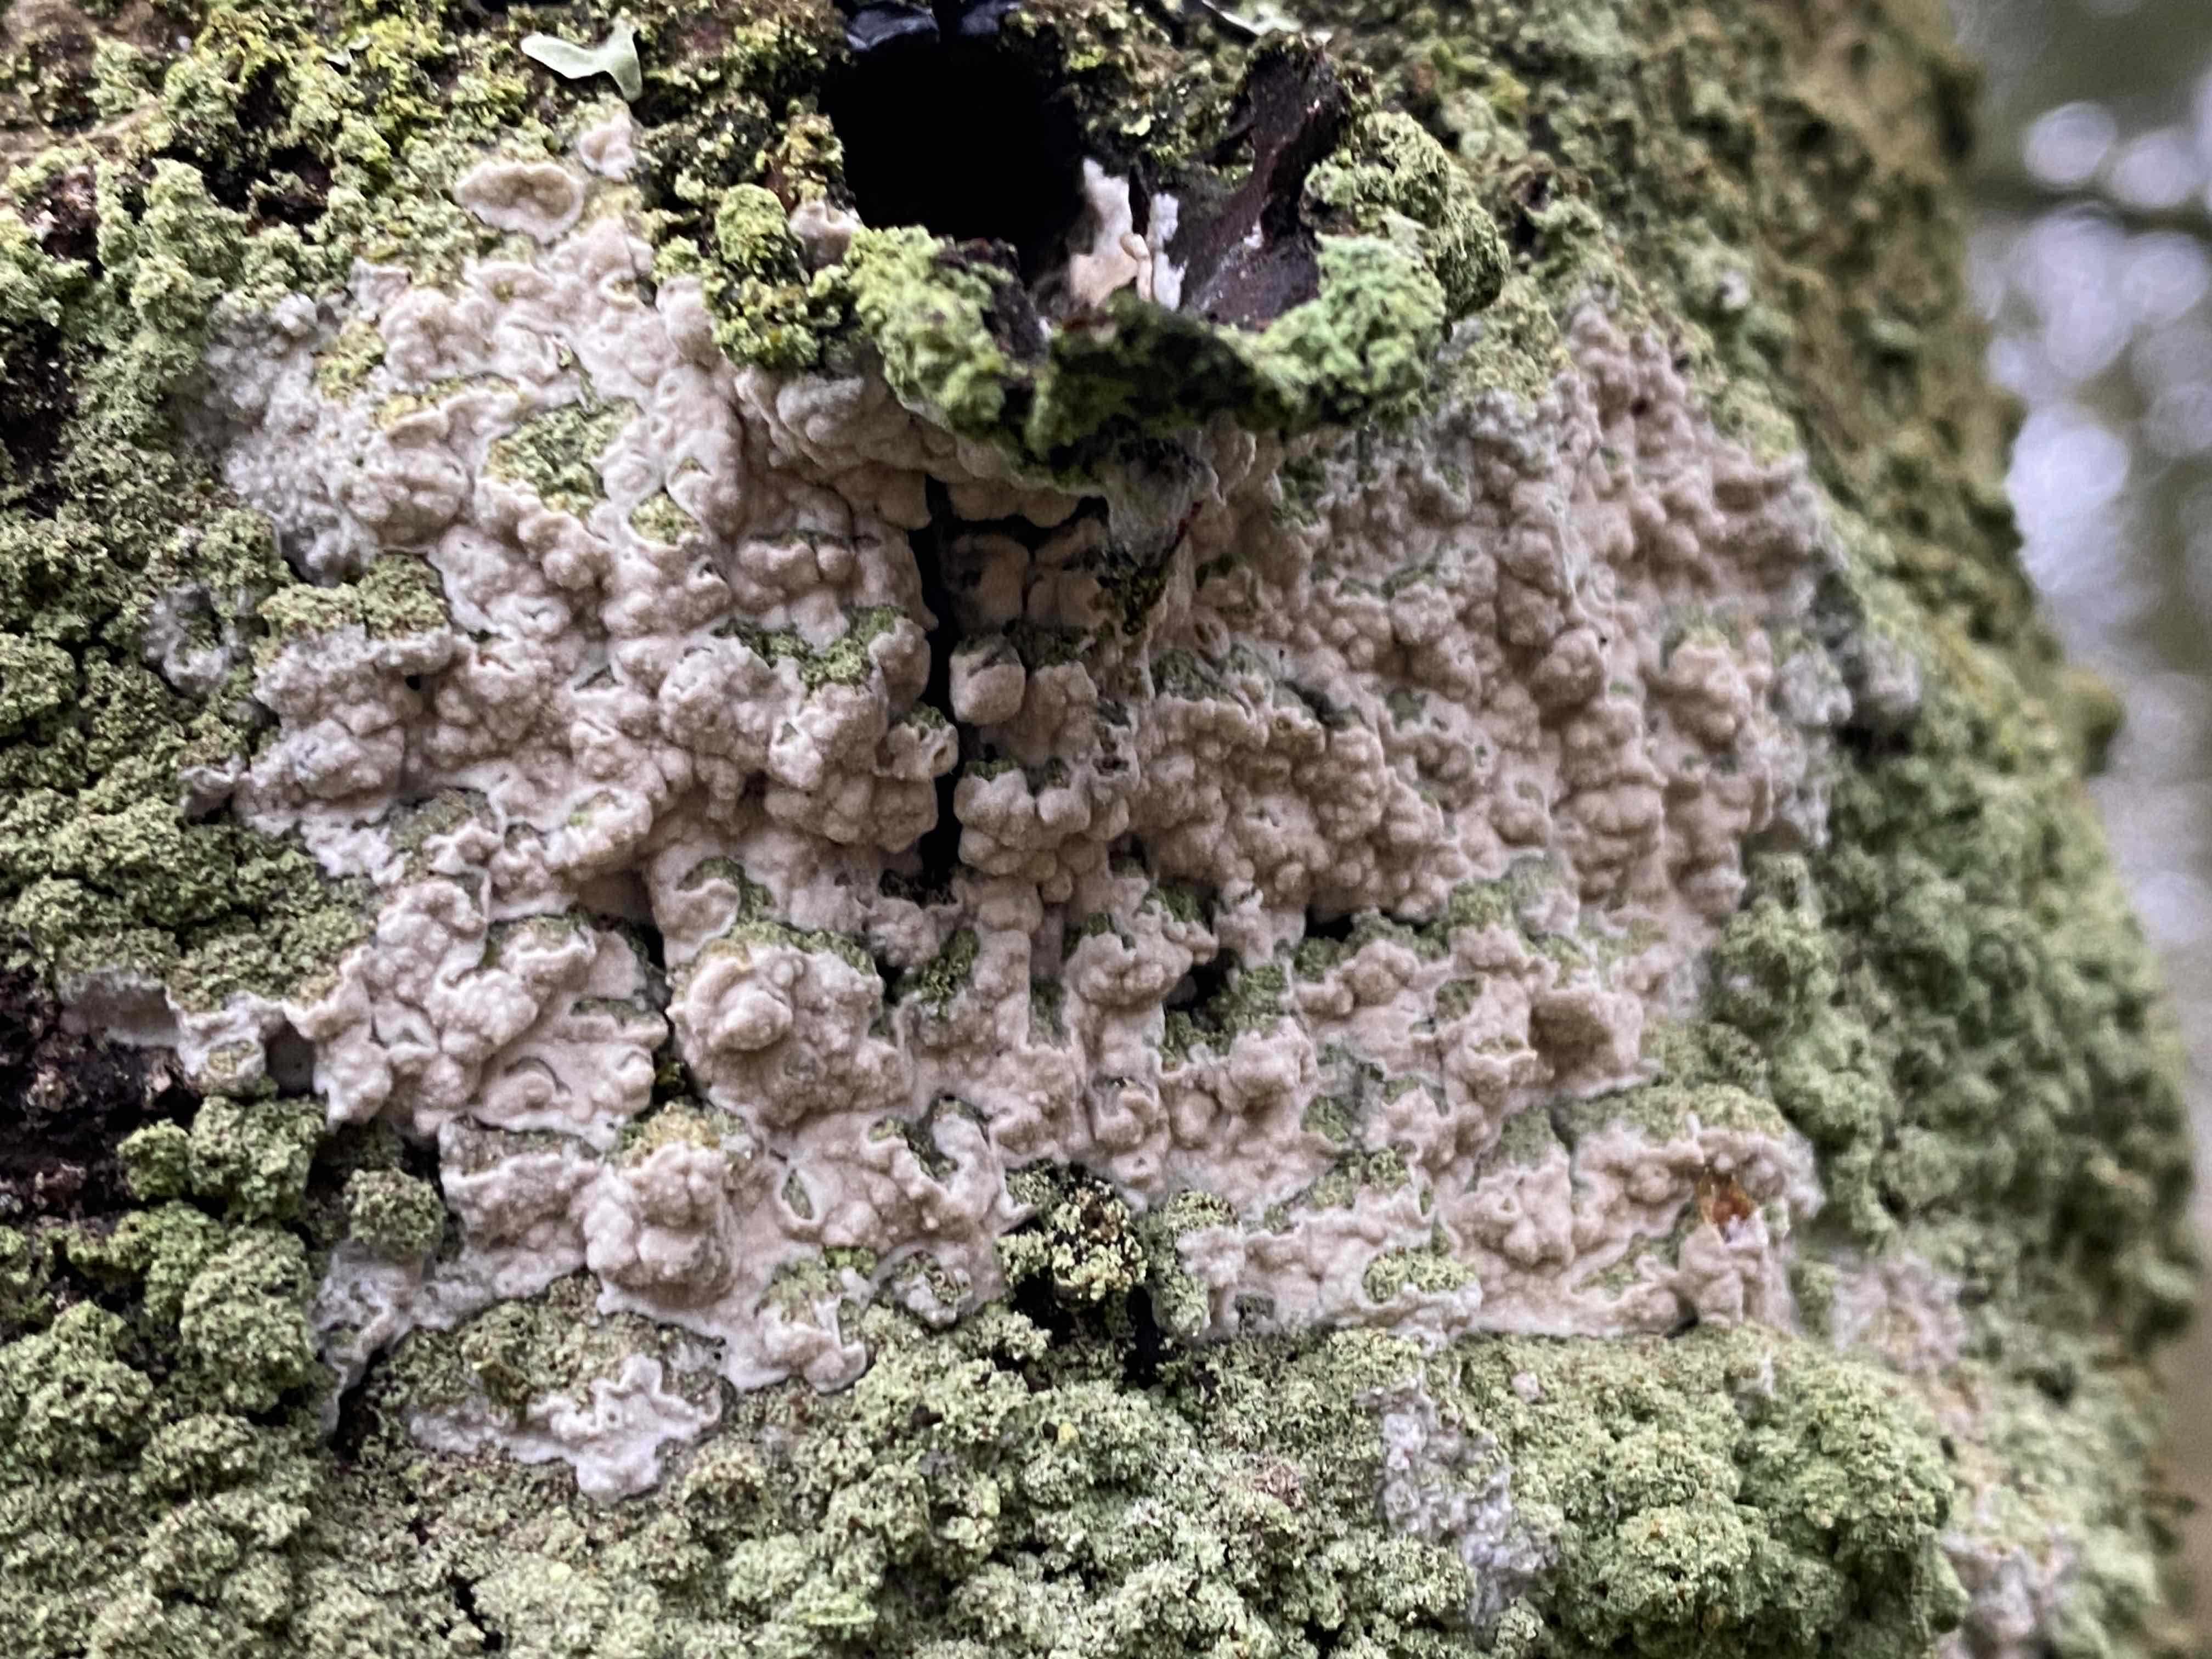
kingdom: Fungi
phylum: Basidiomycota
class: Agaricomycetes
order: Agaricales
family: Physalacriaceae
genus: Cylindrobasidium
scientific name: Cylindrobasidium evolvens
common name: sprækkehinde
